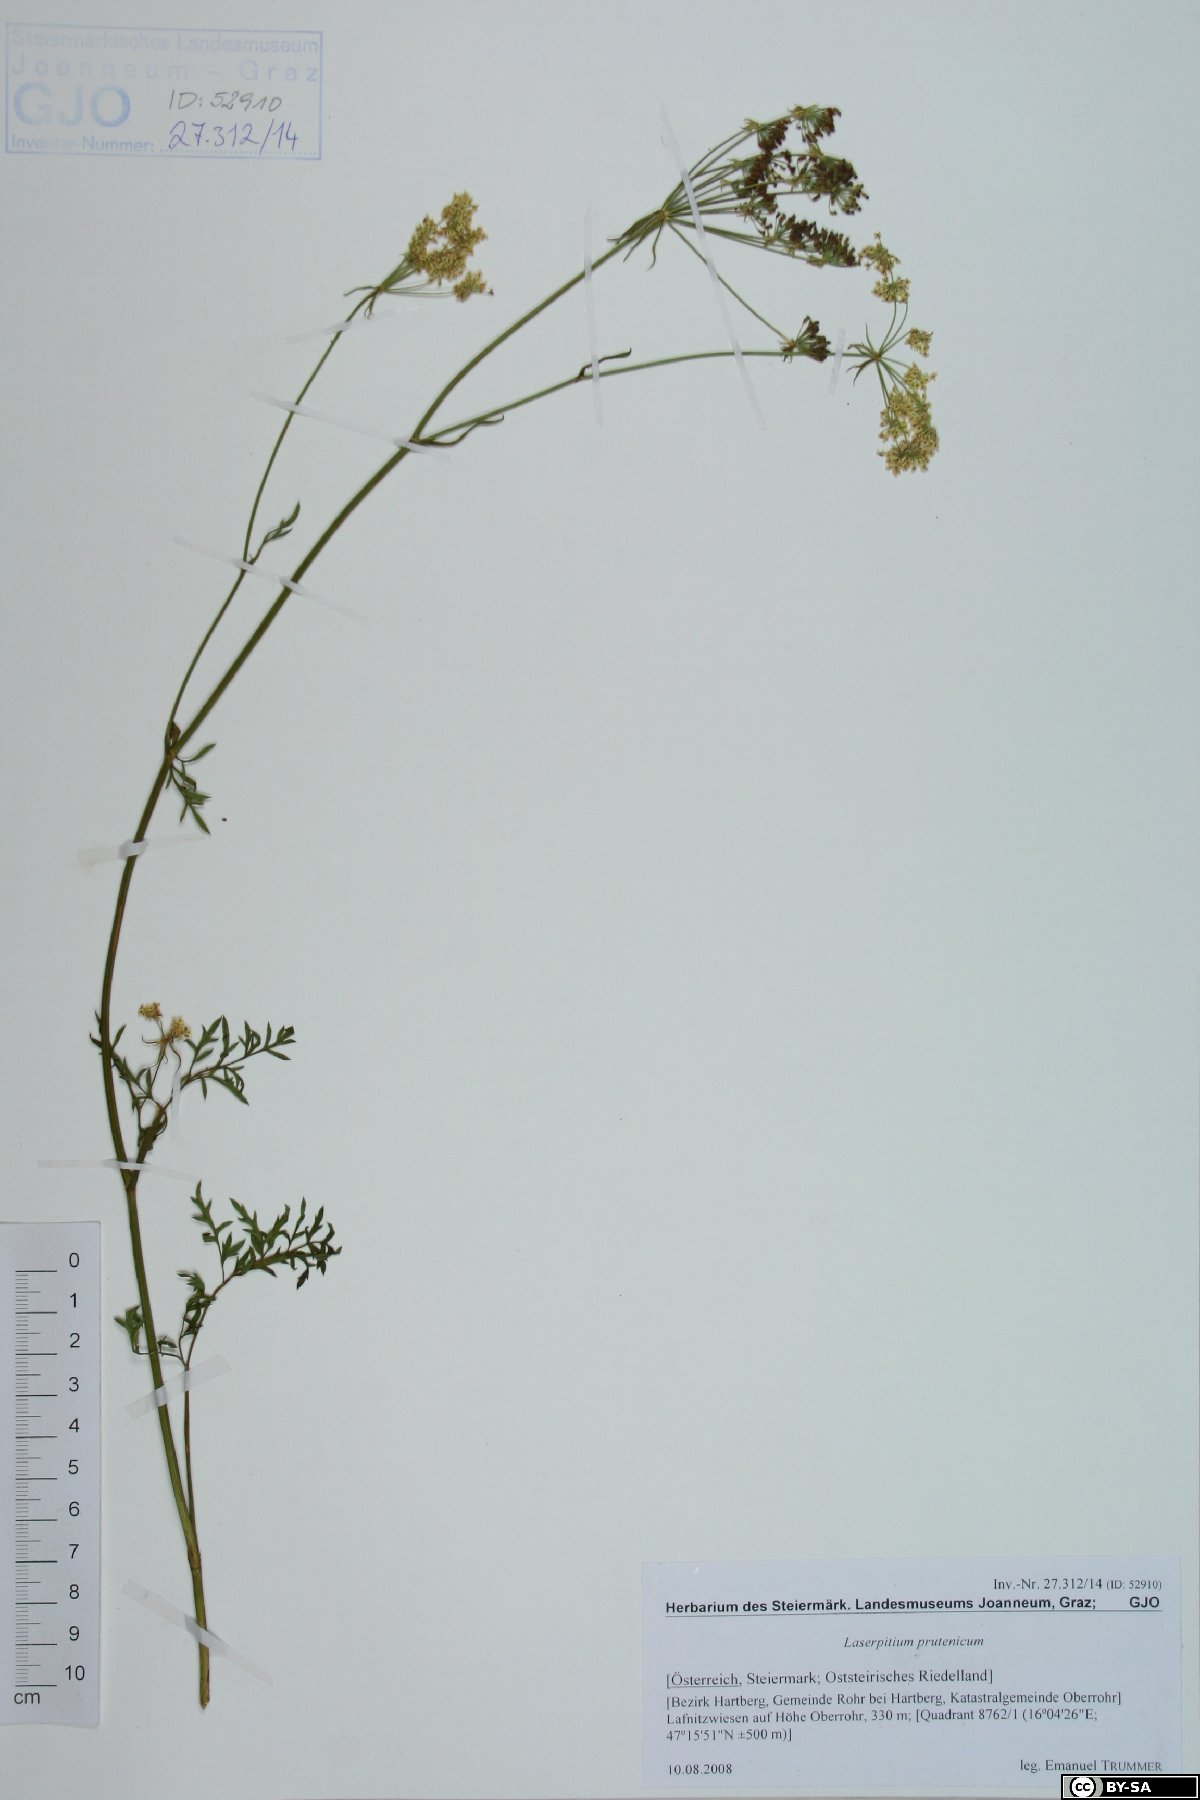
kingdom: Plantae
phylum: Tracheophyta
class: Magnoliopsida
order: Apiales
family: Apiaceae
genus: Silphiodaucus
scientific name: Silphiodaucus prutenicus
